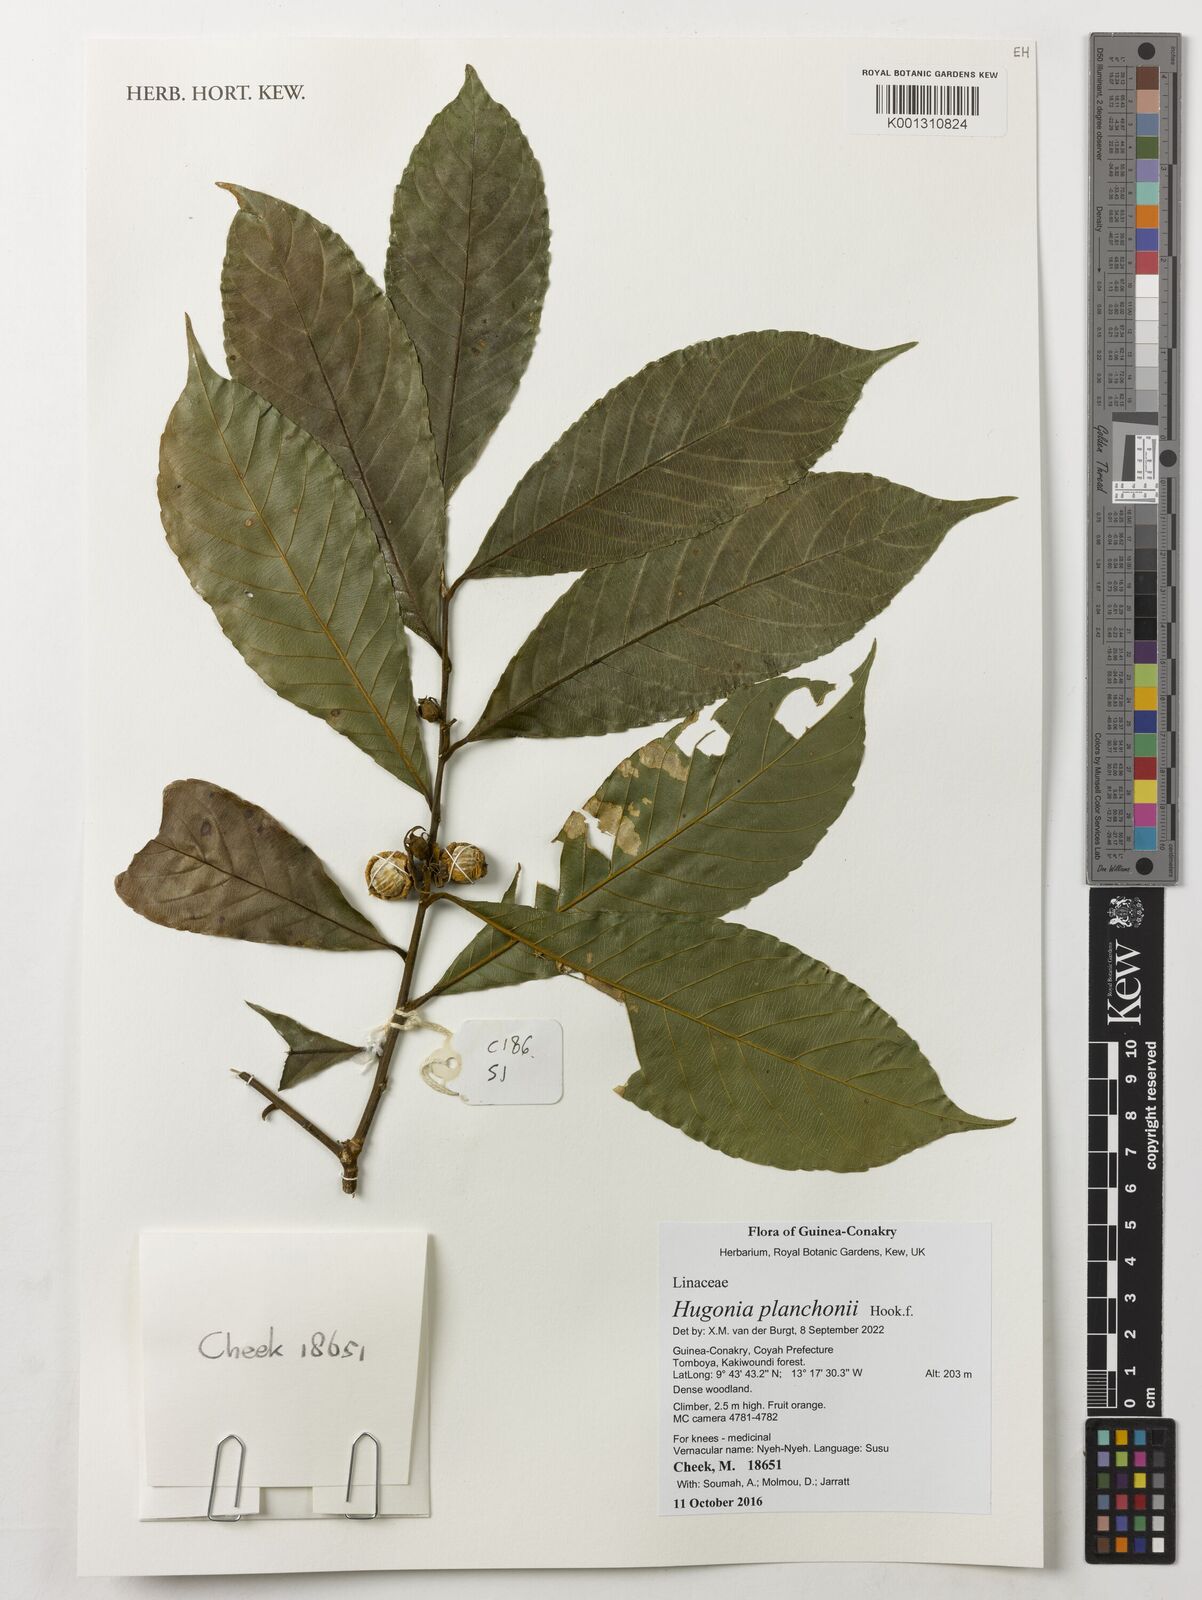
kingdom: Plantae
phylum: Tracheophyta
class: Magnoliopsida
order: Malpighiales
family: Linaceae
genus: Hugonia
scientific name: Hugonia planchonii
